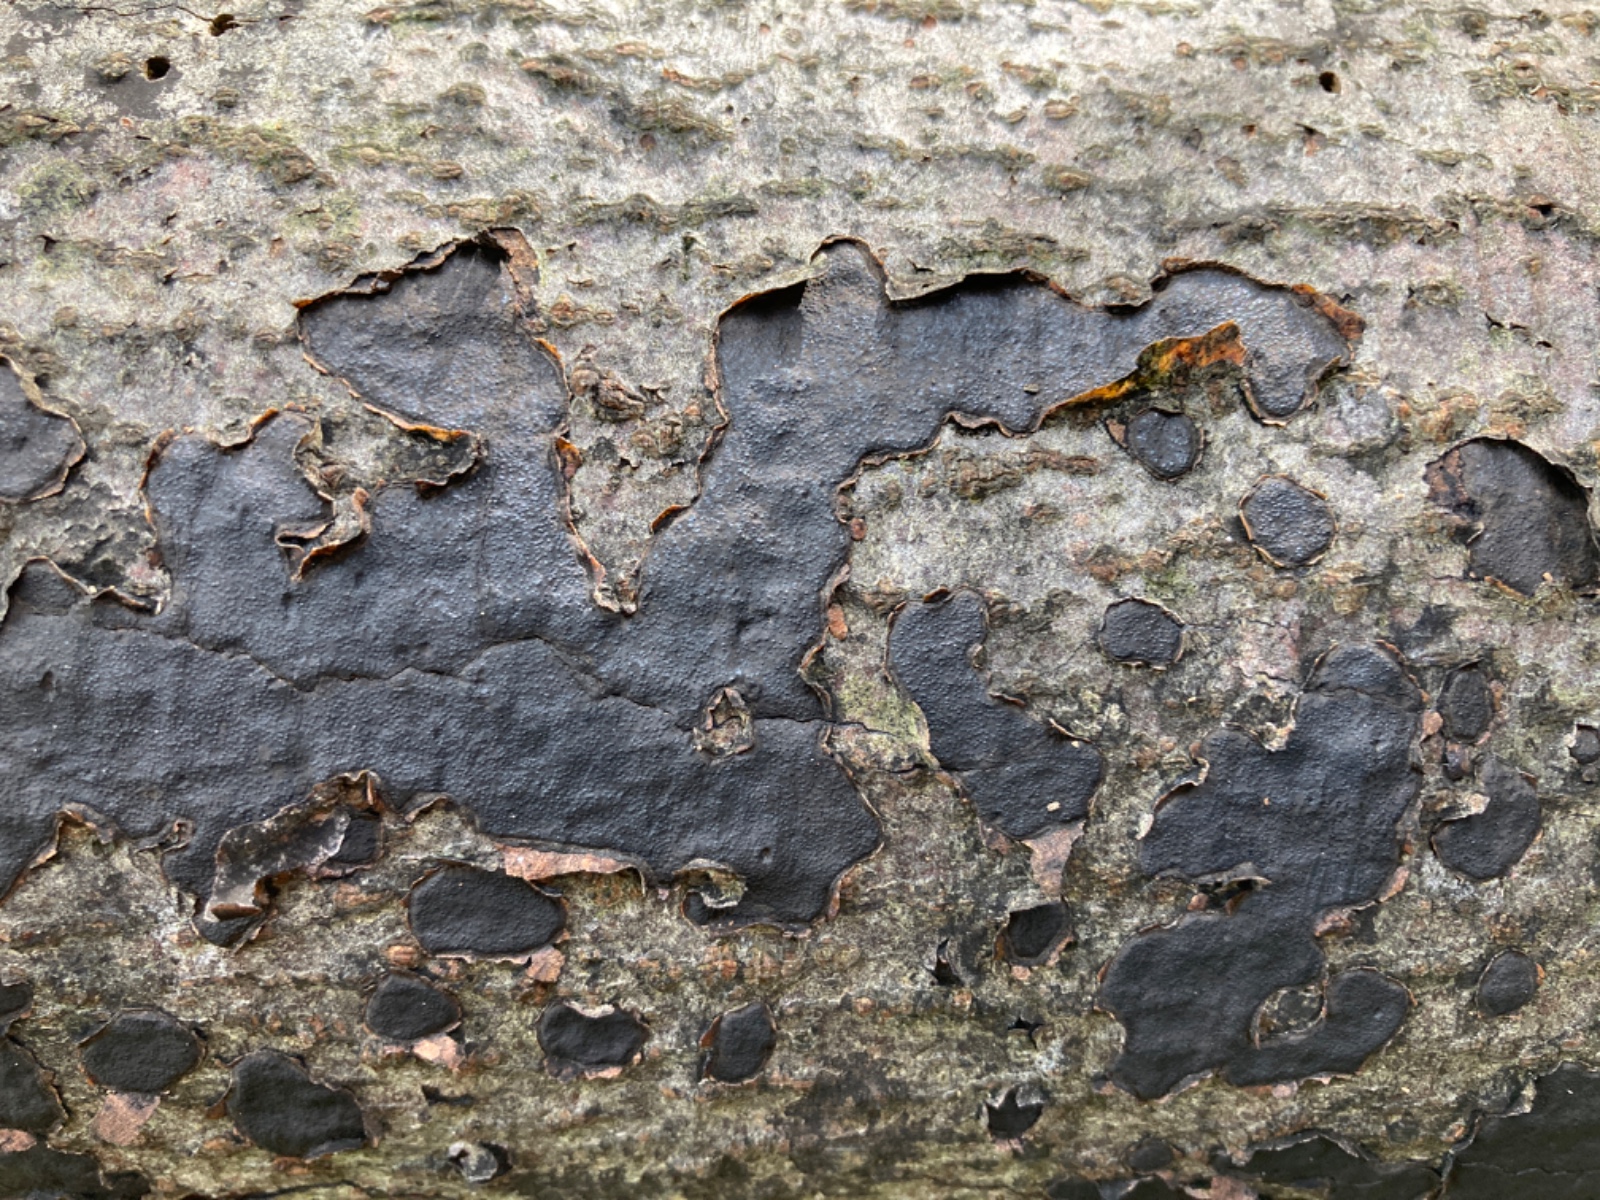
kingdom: Fungi
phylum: Ascomycota
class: Sordariomycetes
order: Xylariales
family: Graphostromataceae
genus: Biscogniauxia
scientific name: Biscogniauxia nummularia
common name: bøge-kulskive
